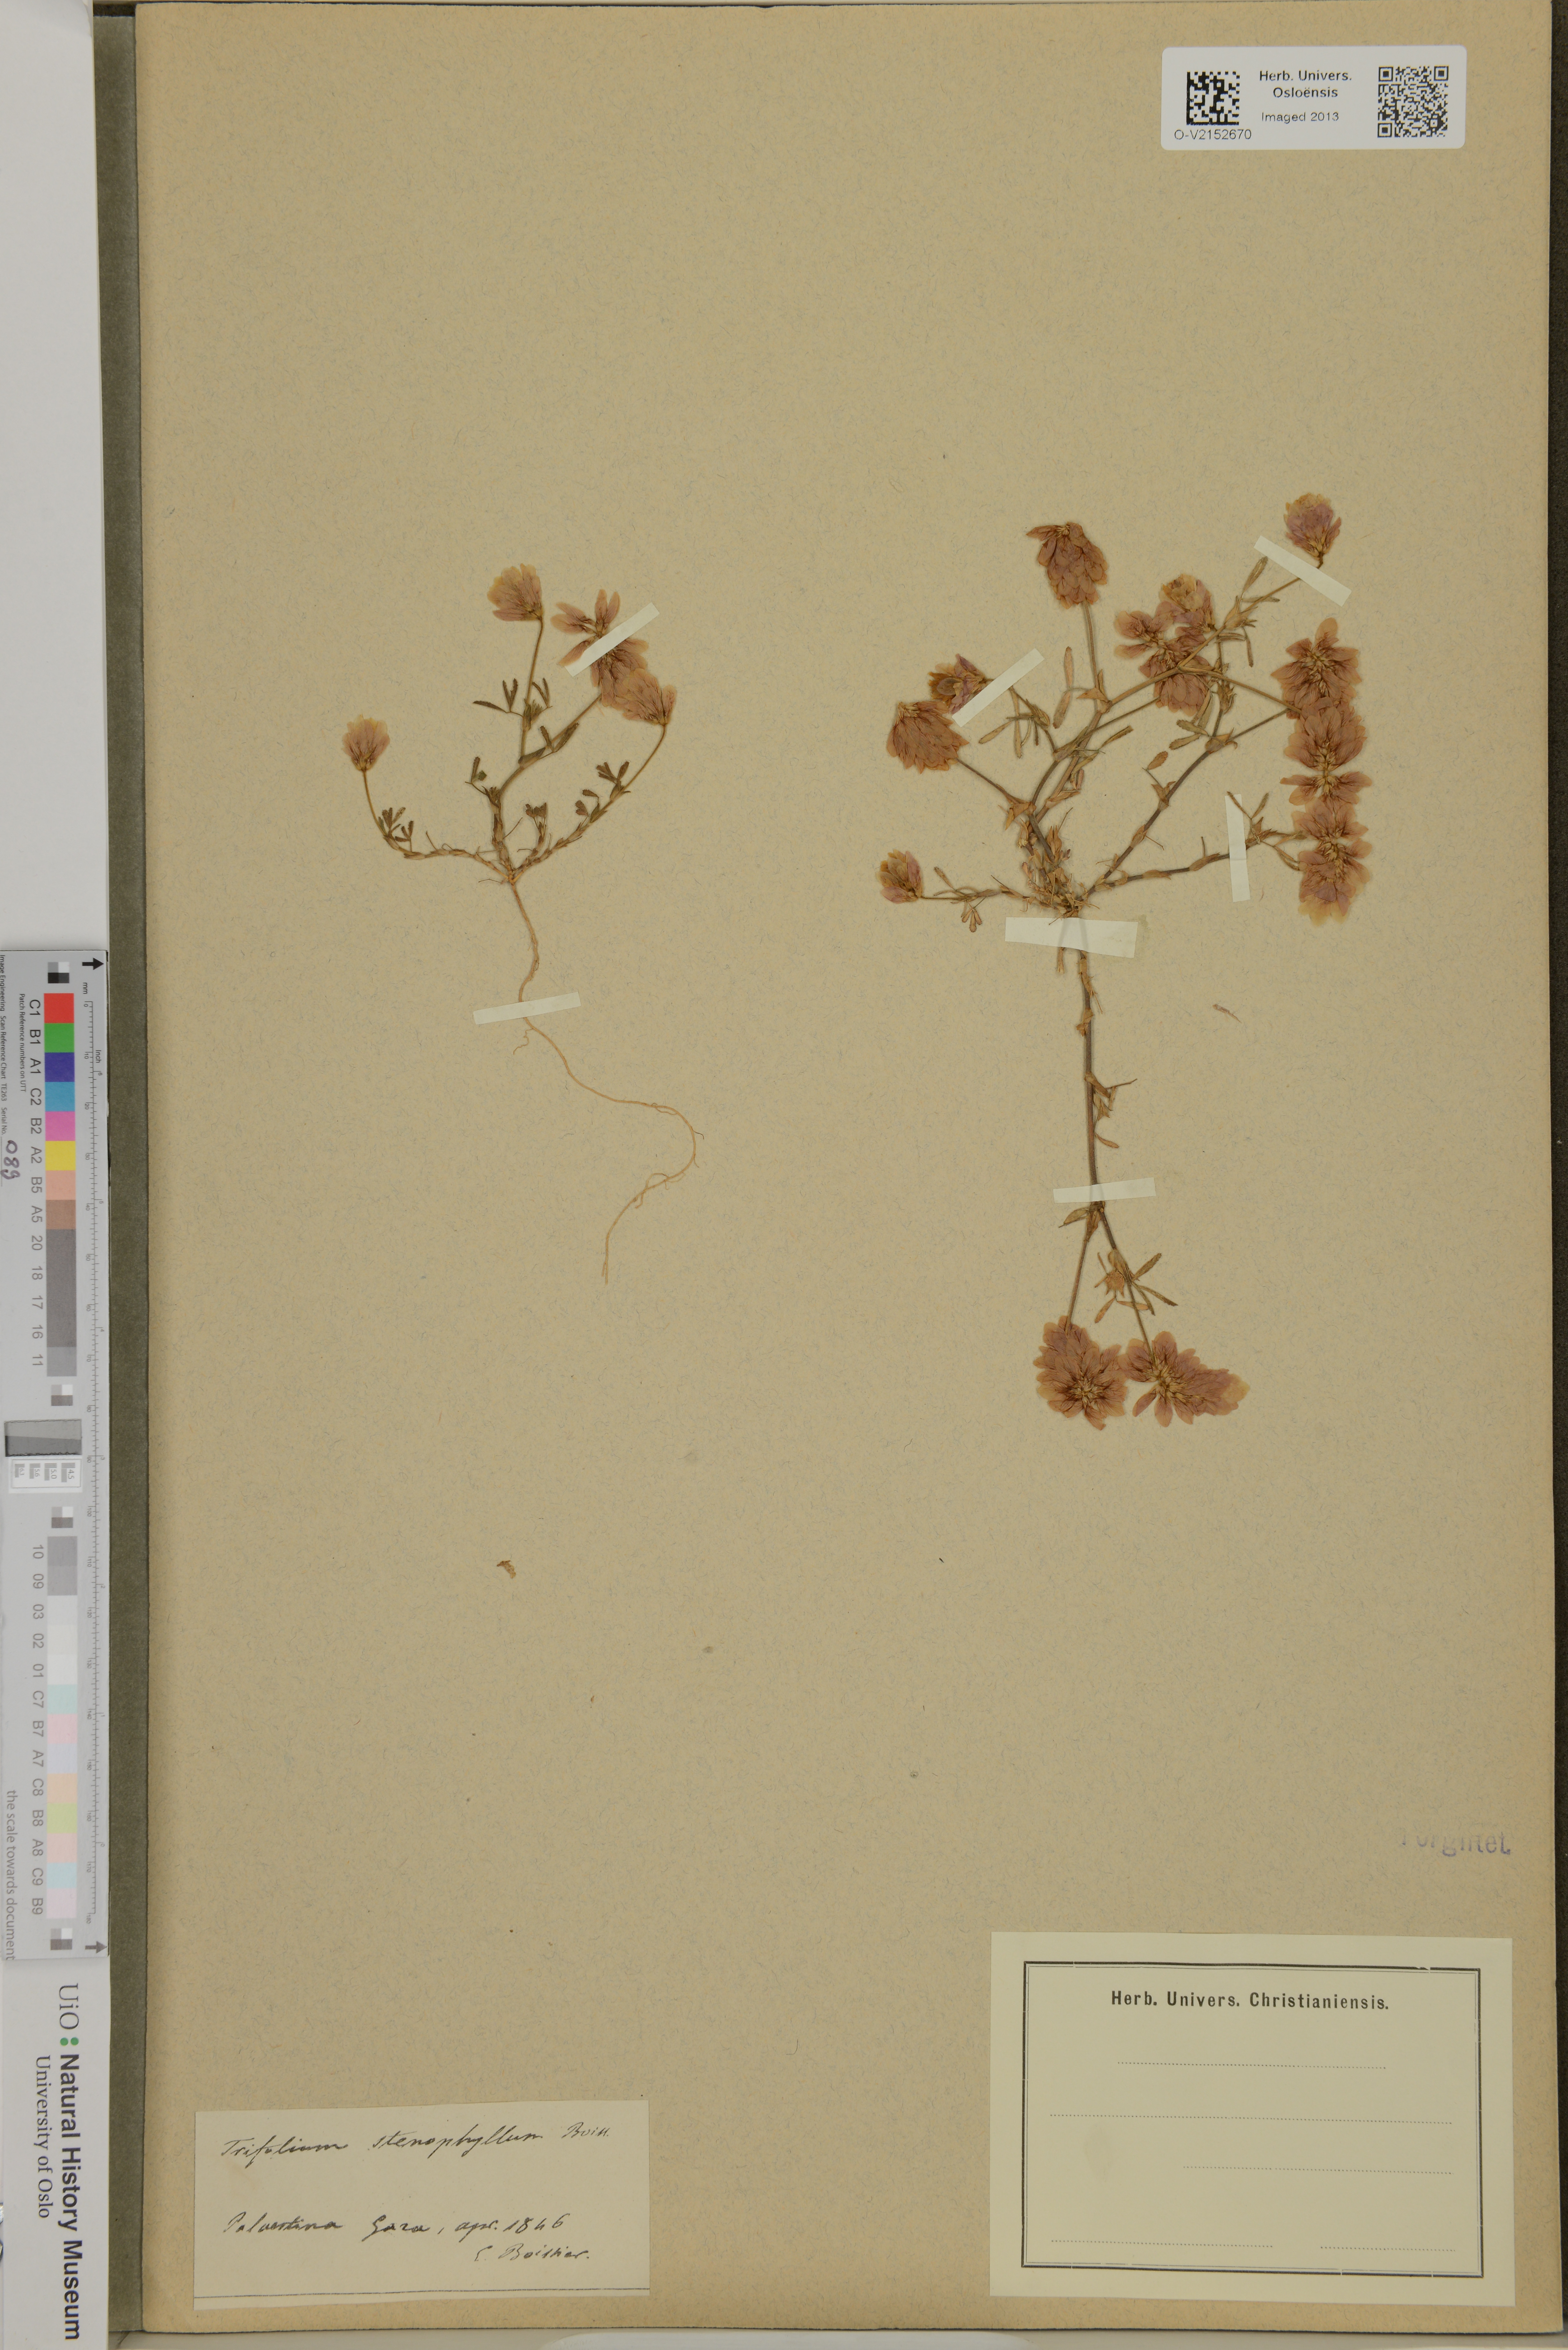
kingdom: Plantae
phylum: Tracheophyta
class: Magnoliopsida
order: Fabales
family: Fabaceae
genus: Trifolium
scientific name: Trifolium stellatum
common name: Starry clover
